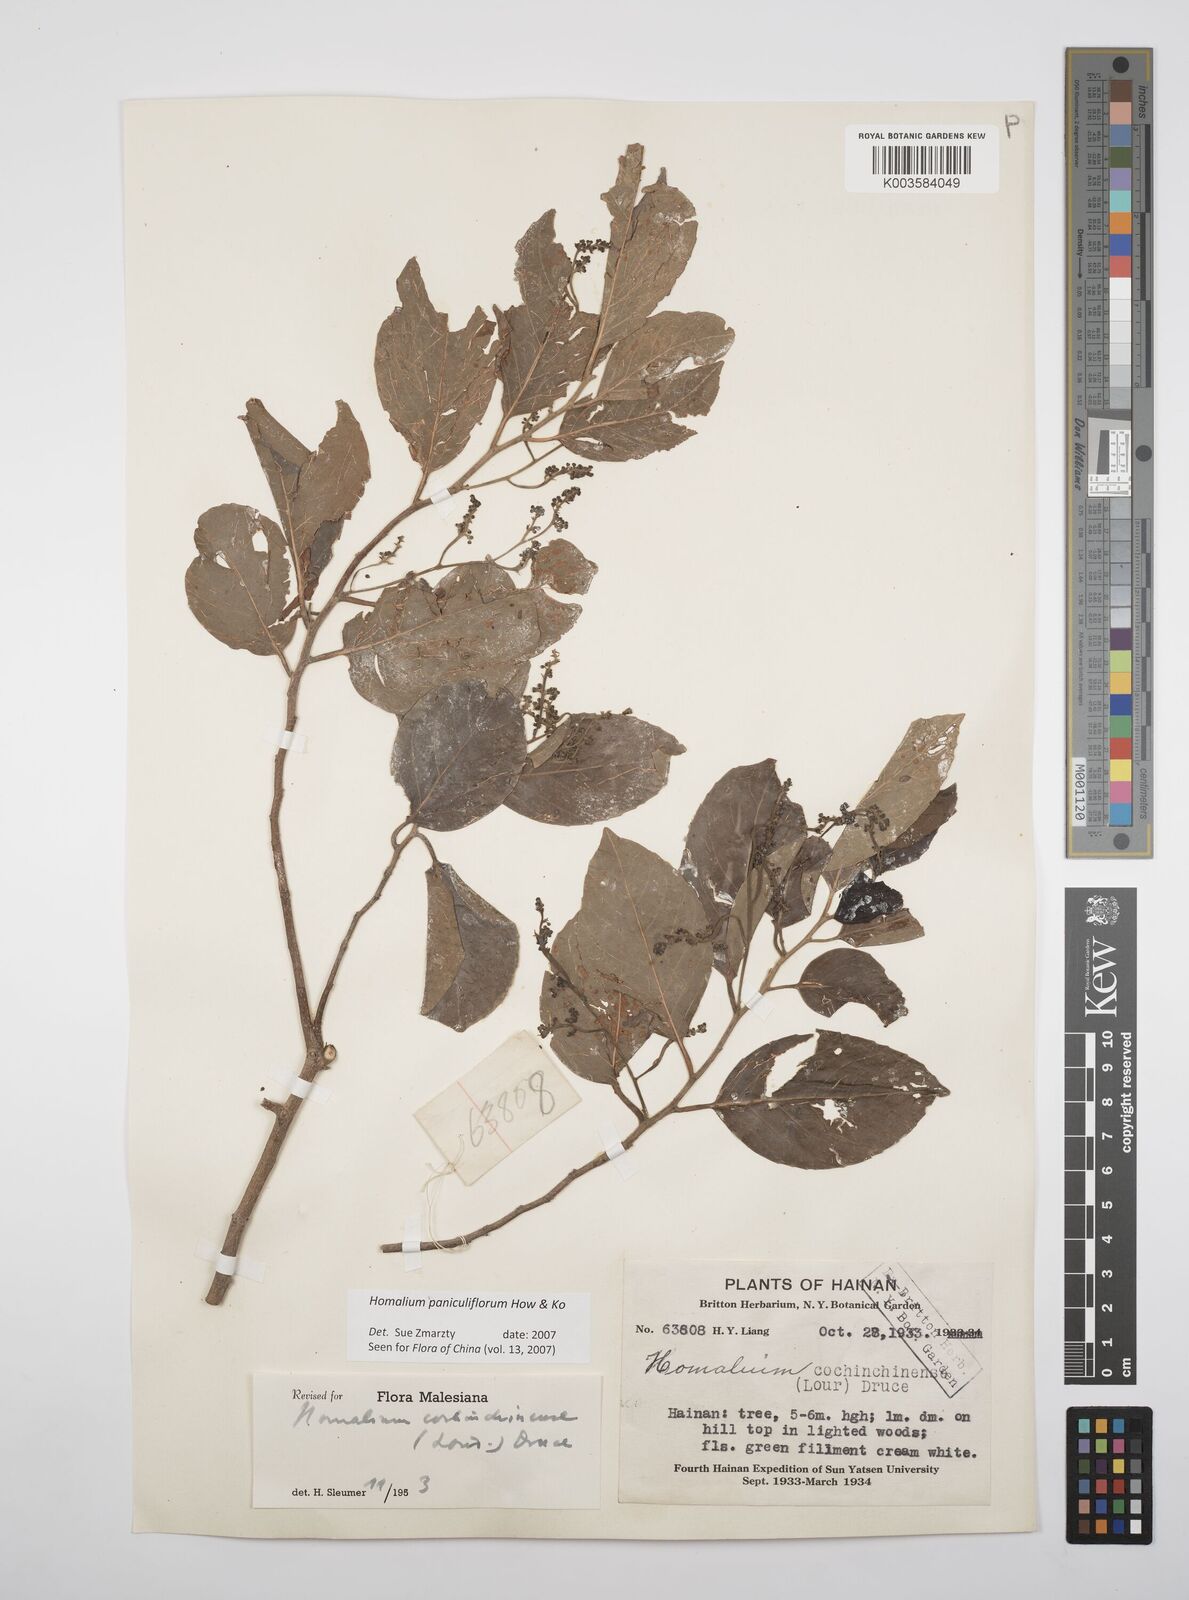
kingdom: Plantae
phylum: Tracheophyta
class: Magnoliopsida
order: Malpighiales
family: Salicaceae
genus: Homalium
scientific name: Homalium paniculiflorum
